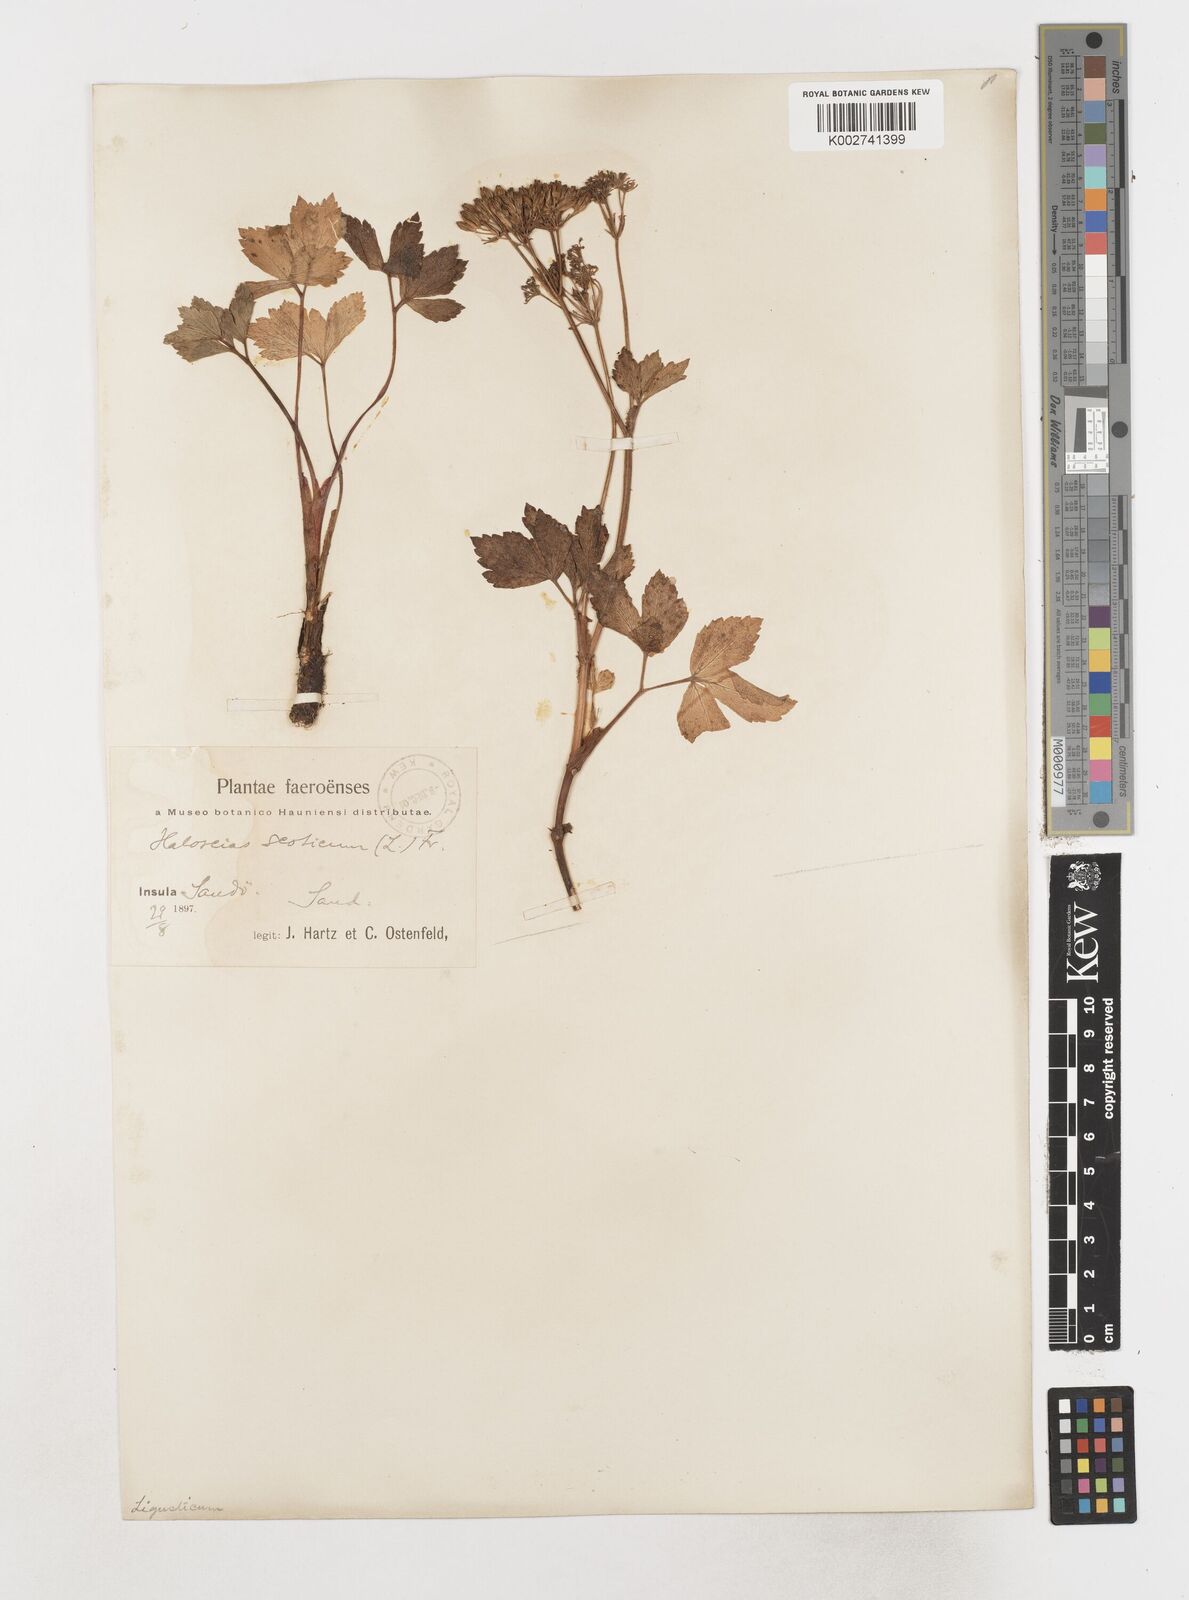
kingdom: Plantae
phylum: Tracheophyta
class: Magnoliopsida
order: Apiales
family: Apiaceae
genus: Ligusticum
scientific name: Ligusticum scothicum
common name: Beach lovage
